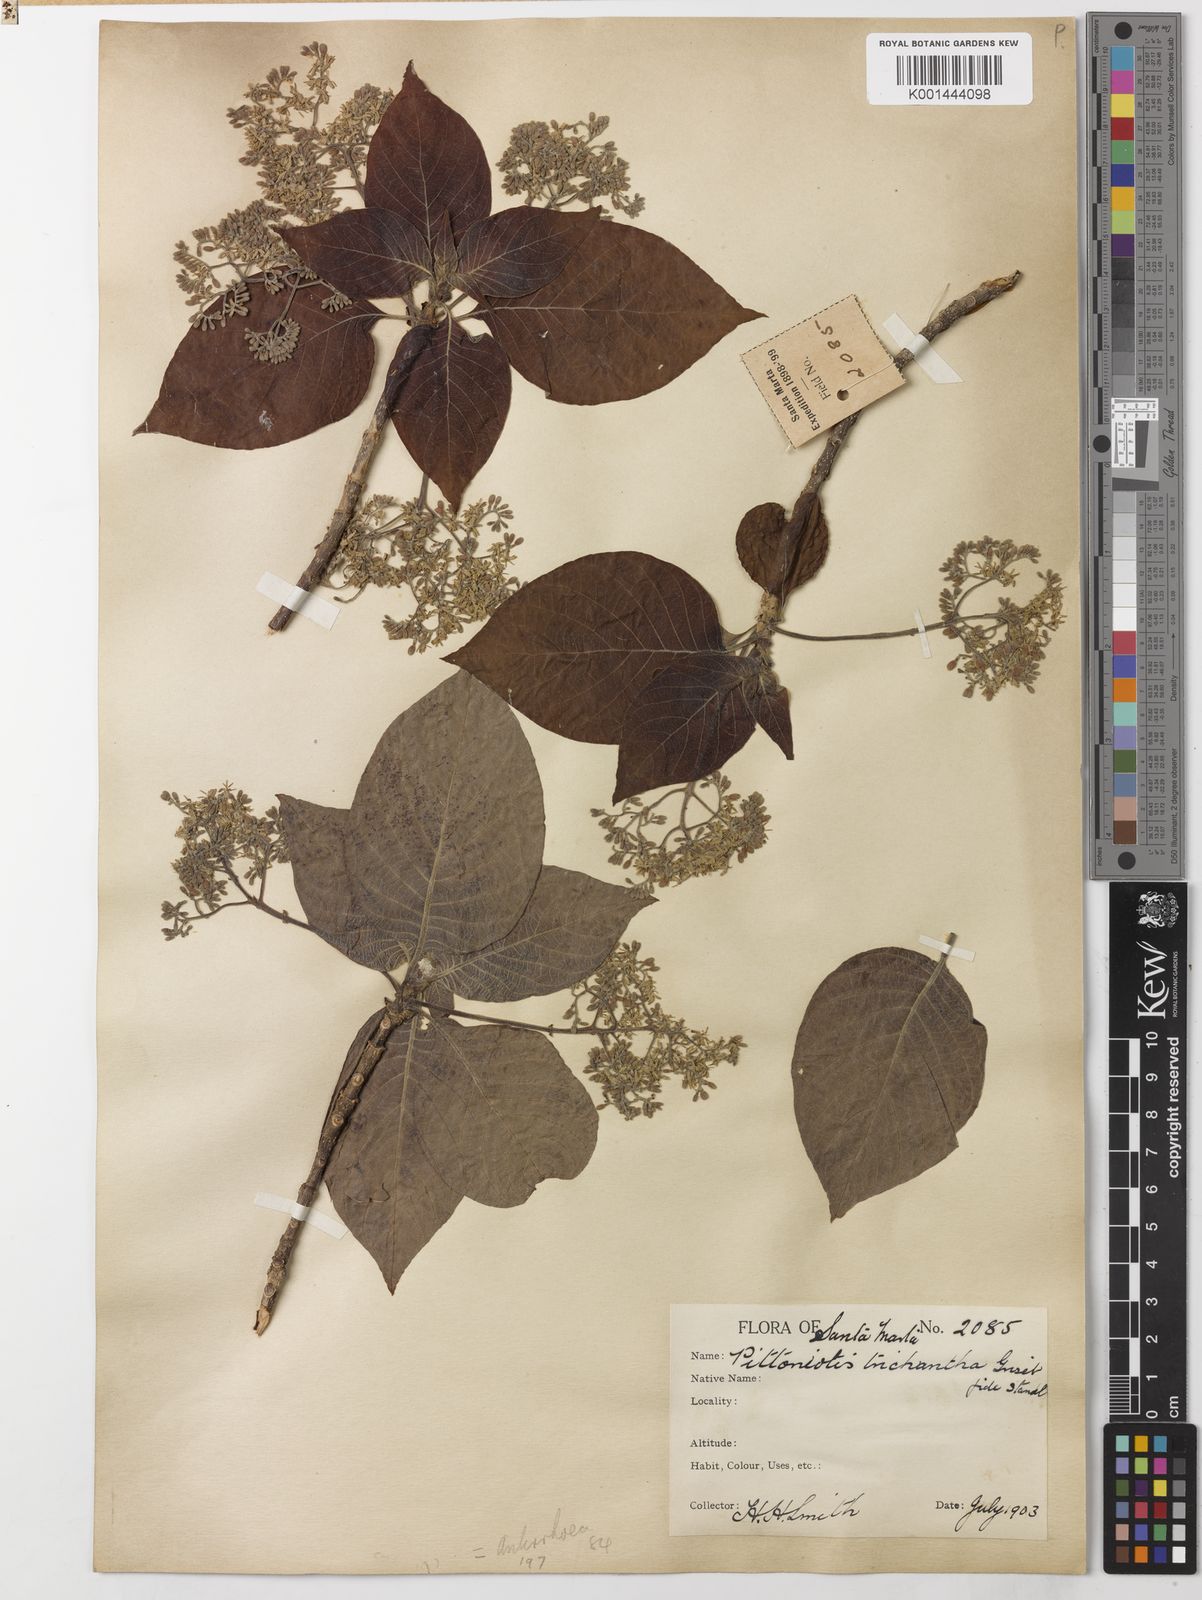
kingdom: Plantae
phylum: Tracheophyta
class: Magnoliopsida
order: Gentianales
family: Rubiaceae
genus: Pittoniotis
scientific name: Pittoniotis trichantha
